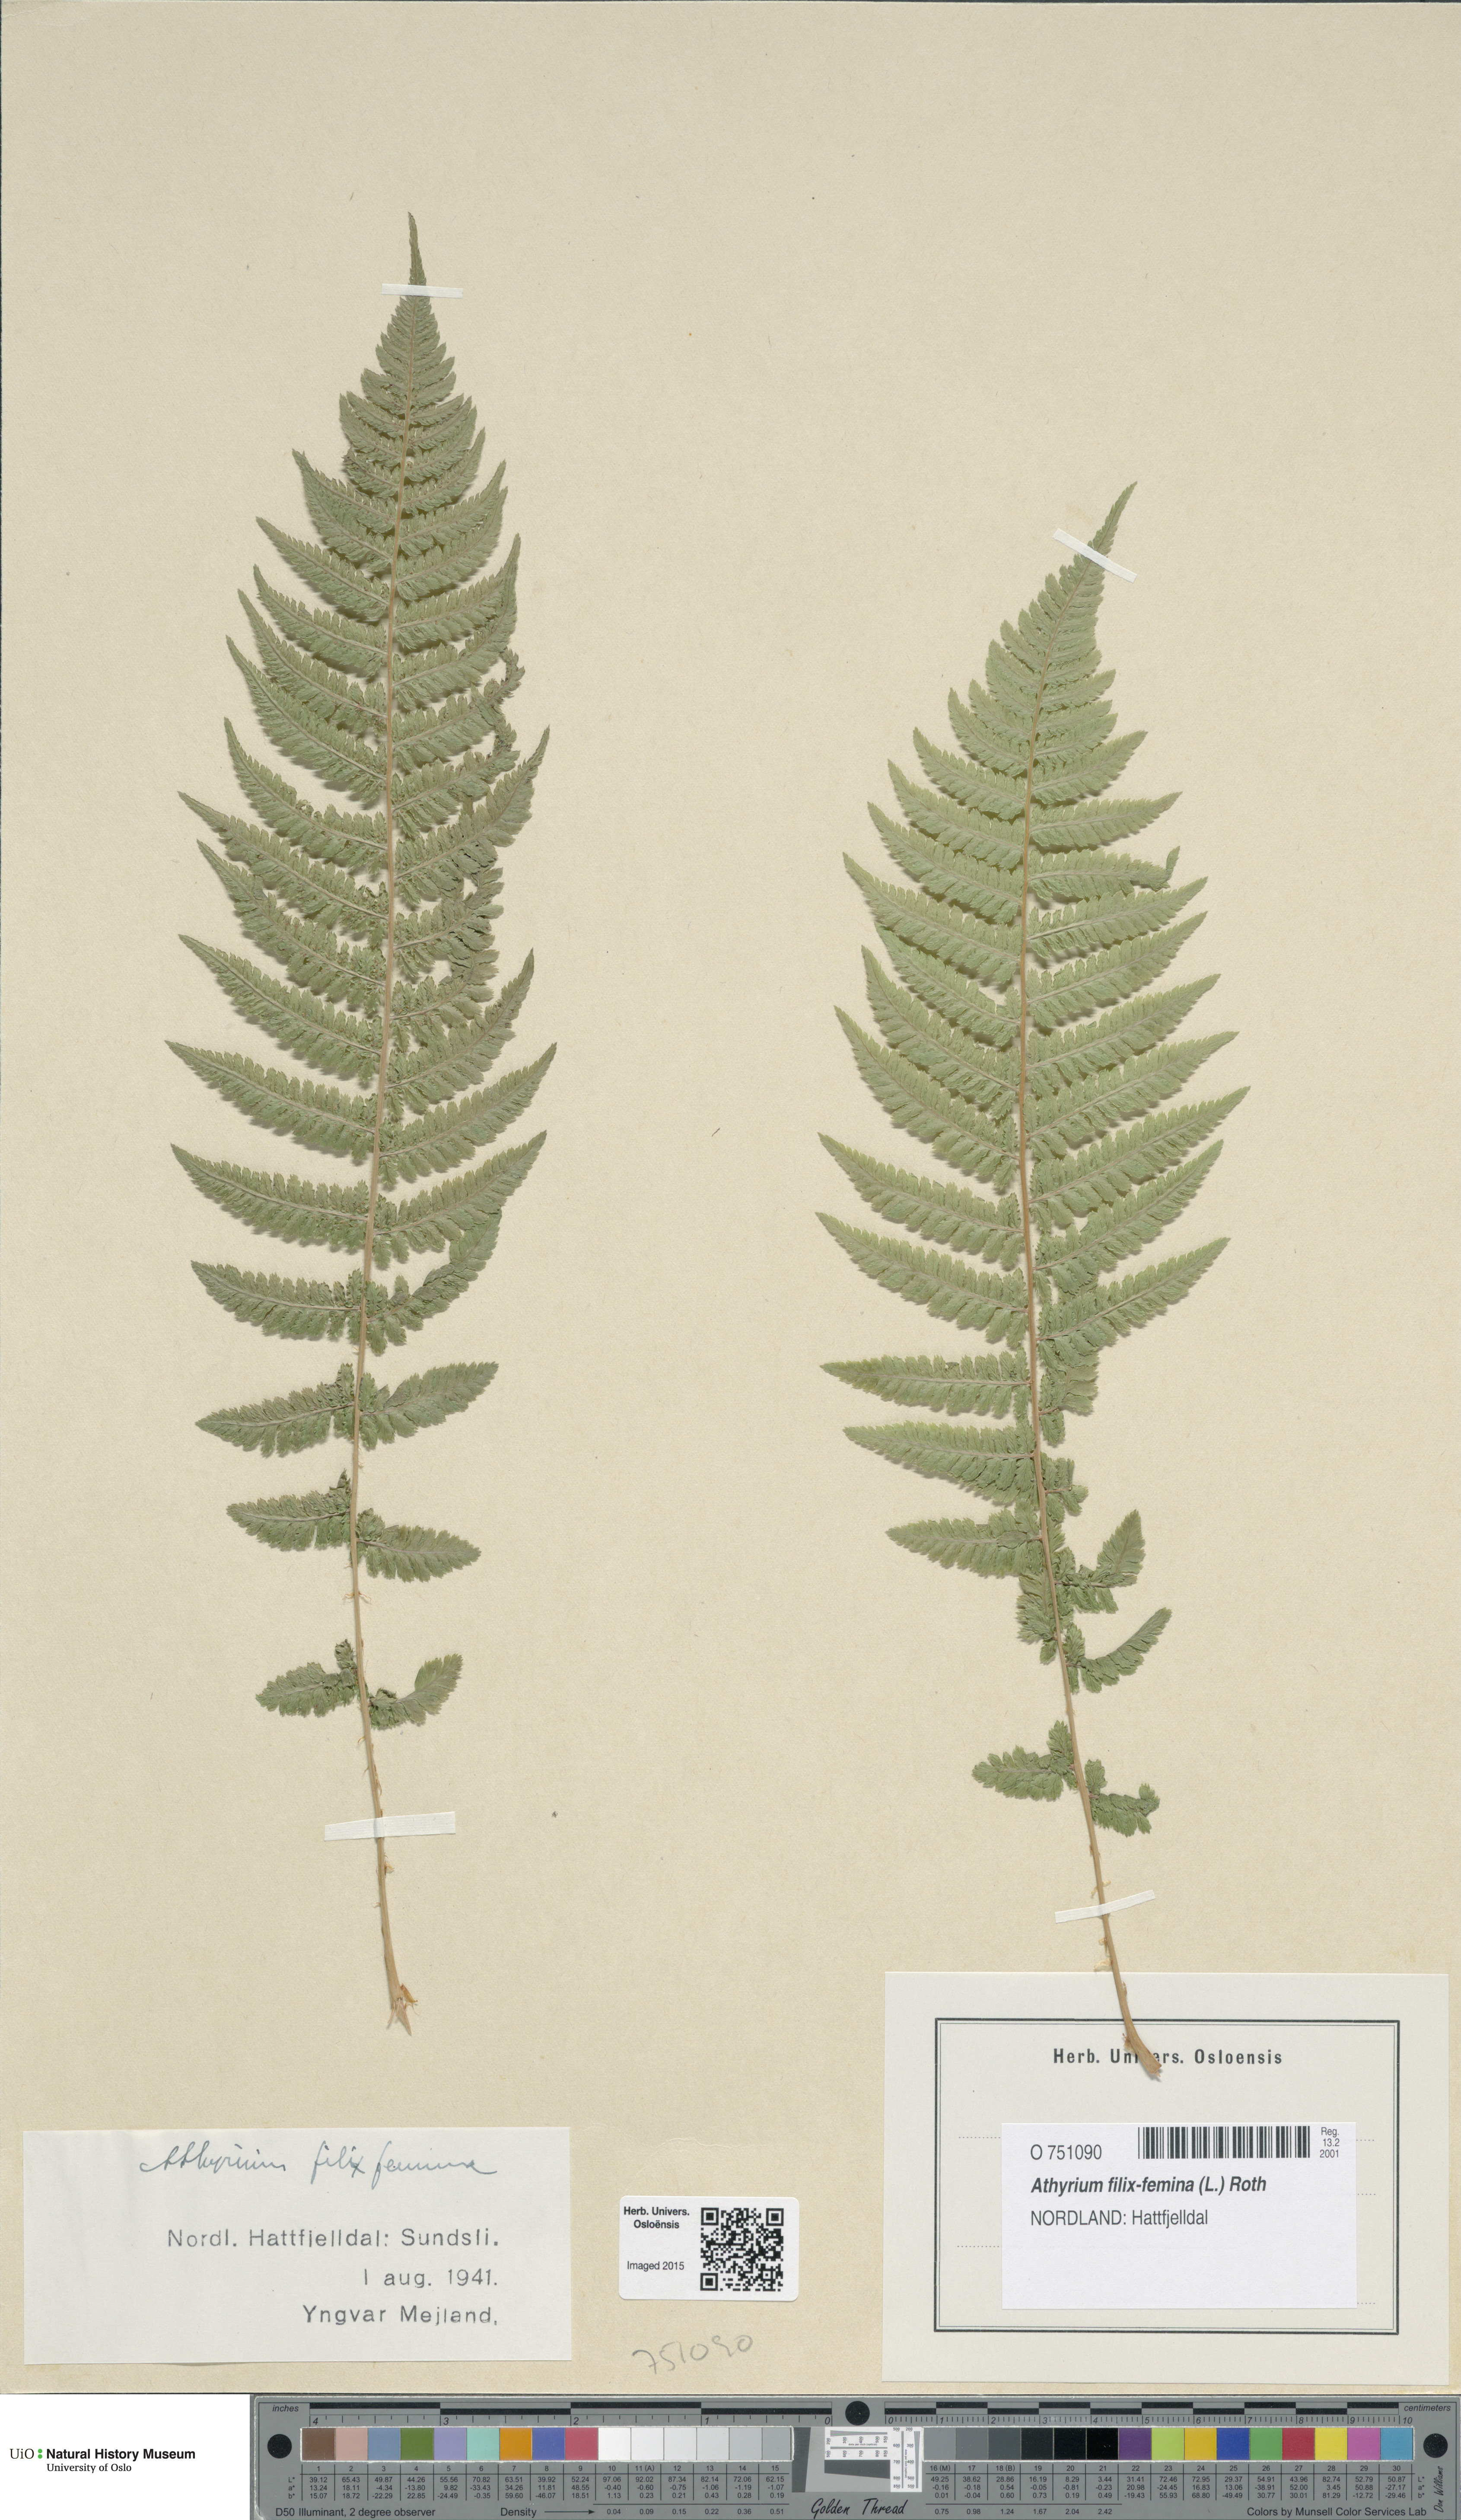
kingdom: Plantae
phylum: Tracheophyta
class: Polypodiopsida
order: Polypodiales
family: Athyriaceae
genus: Athyrium
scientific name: Athyrium filix-femina
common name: Lady fern
